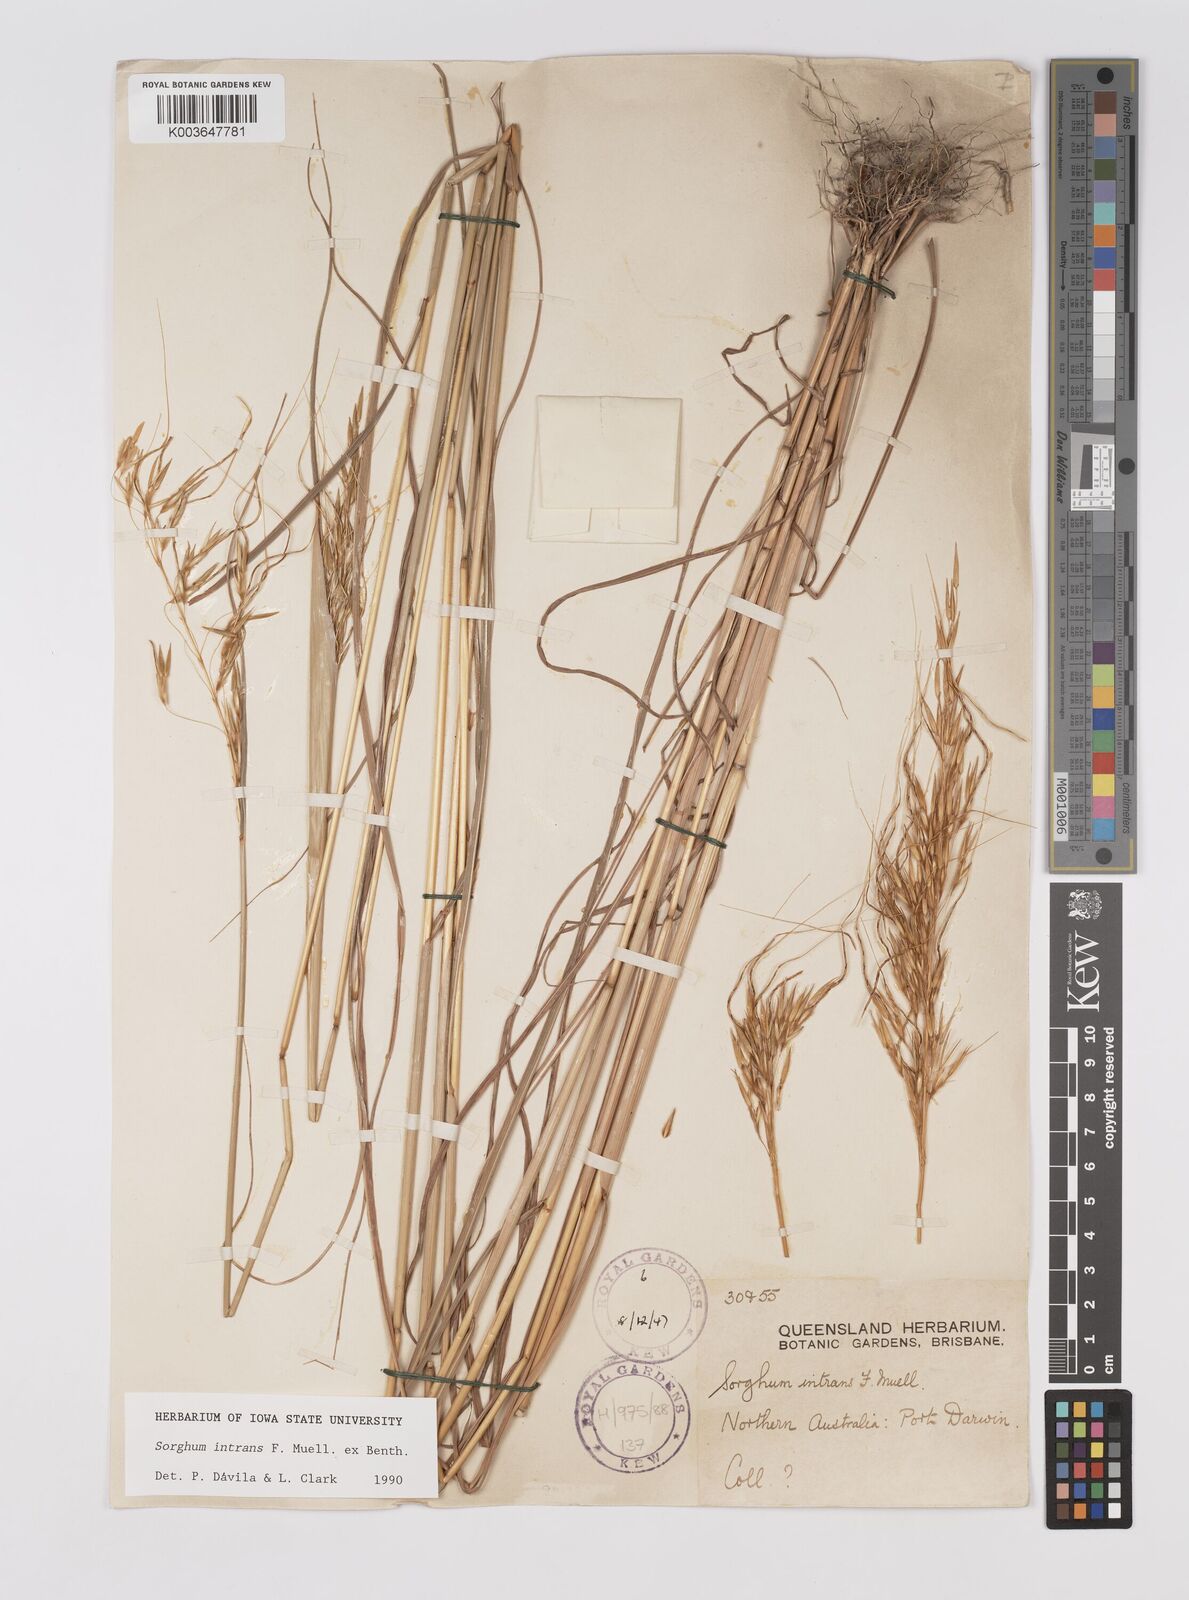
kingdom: Plantae
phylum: Tracheophyta
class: Liliopsida
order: Poales
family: Poaceae
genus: Sarga
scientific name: Sarga intrans
